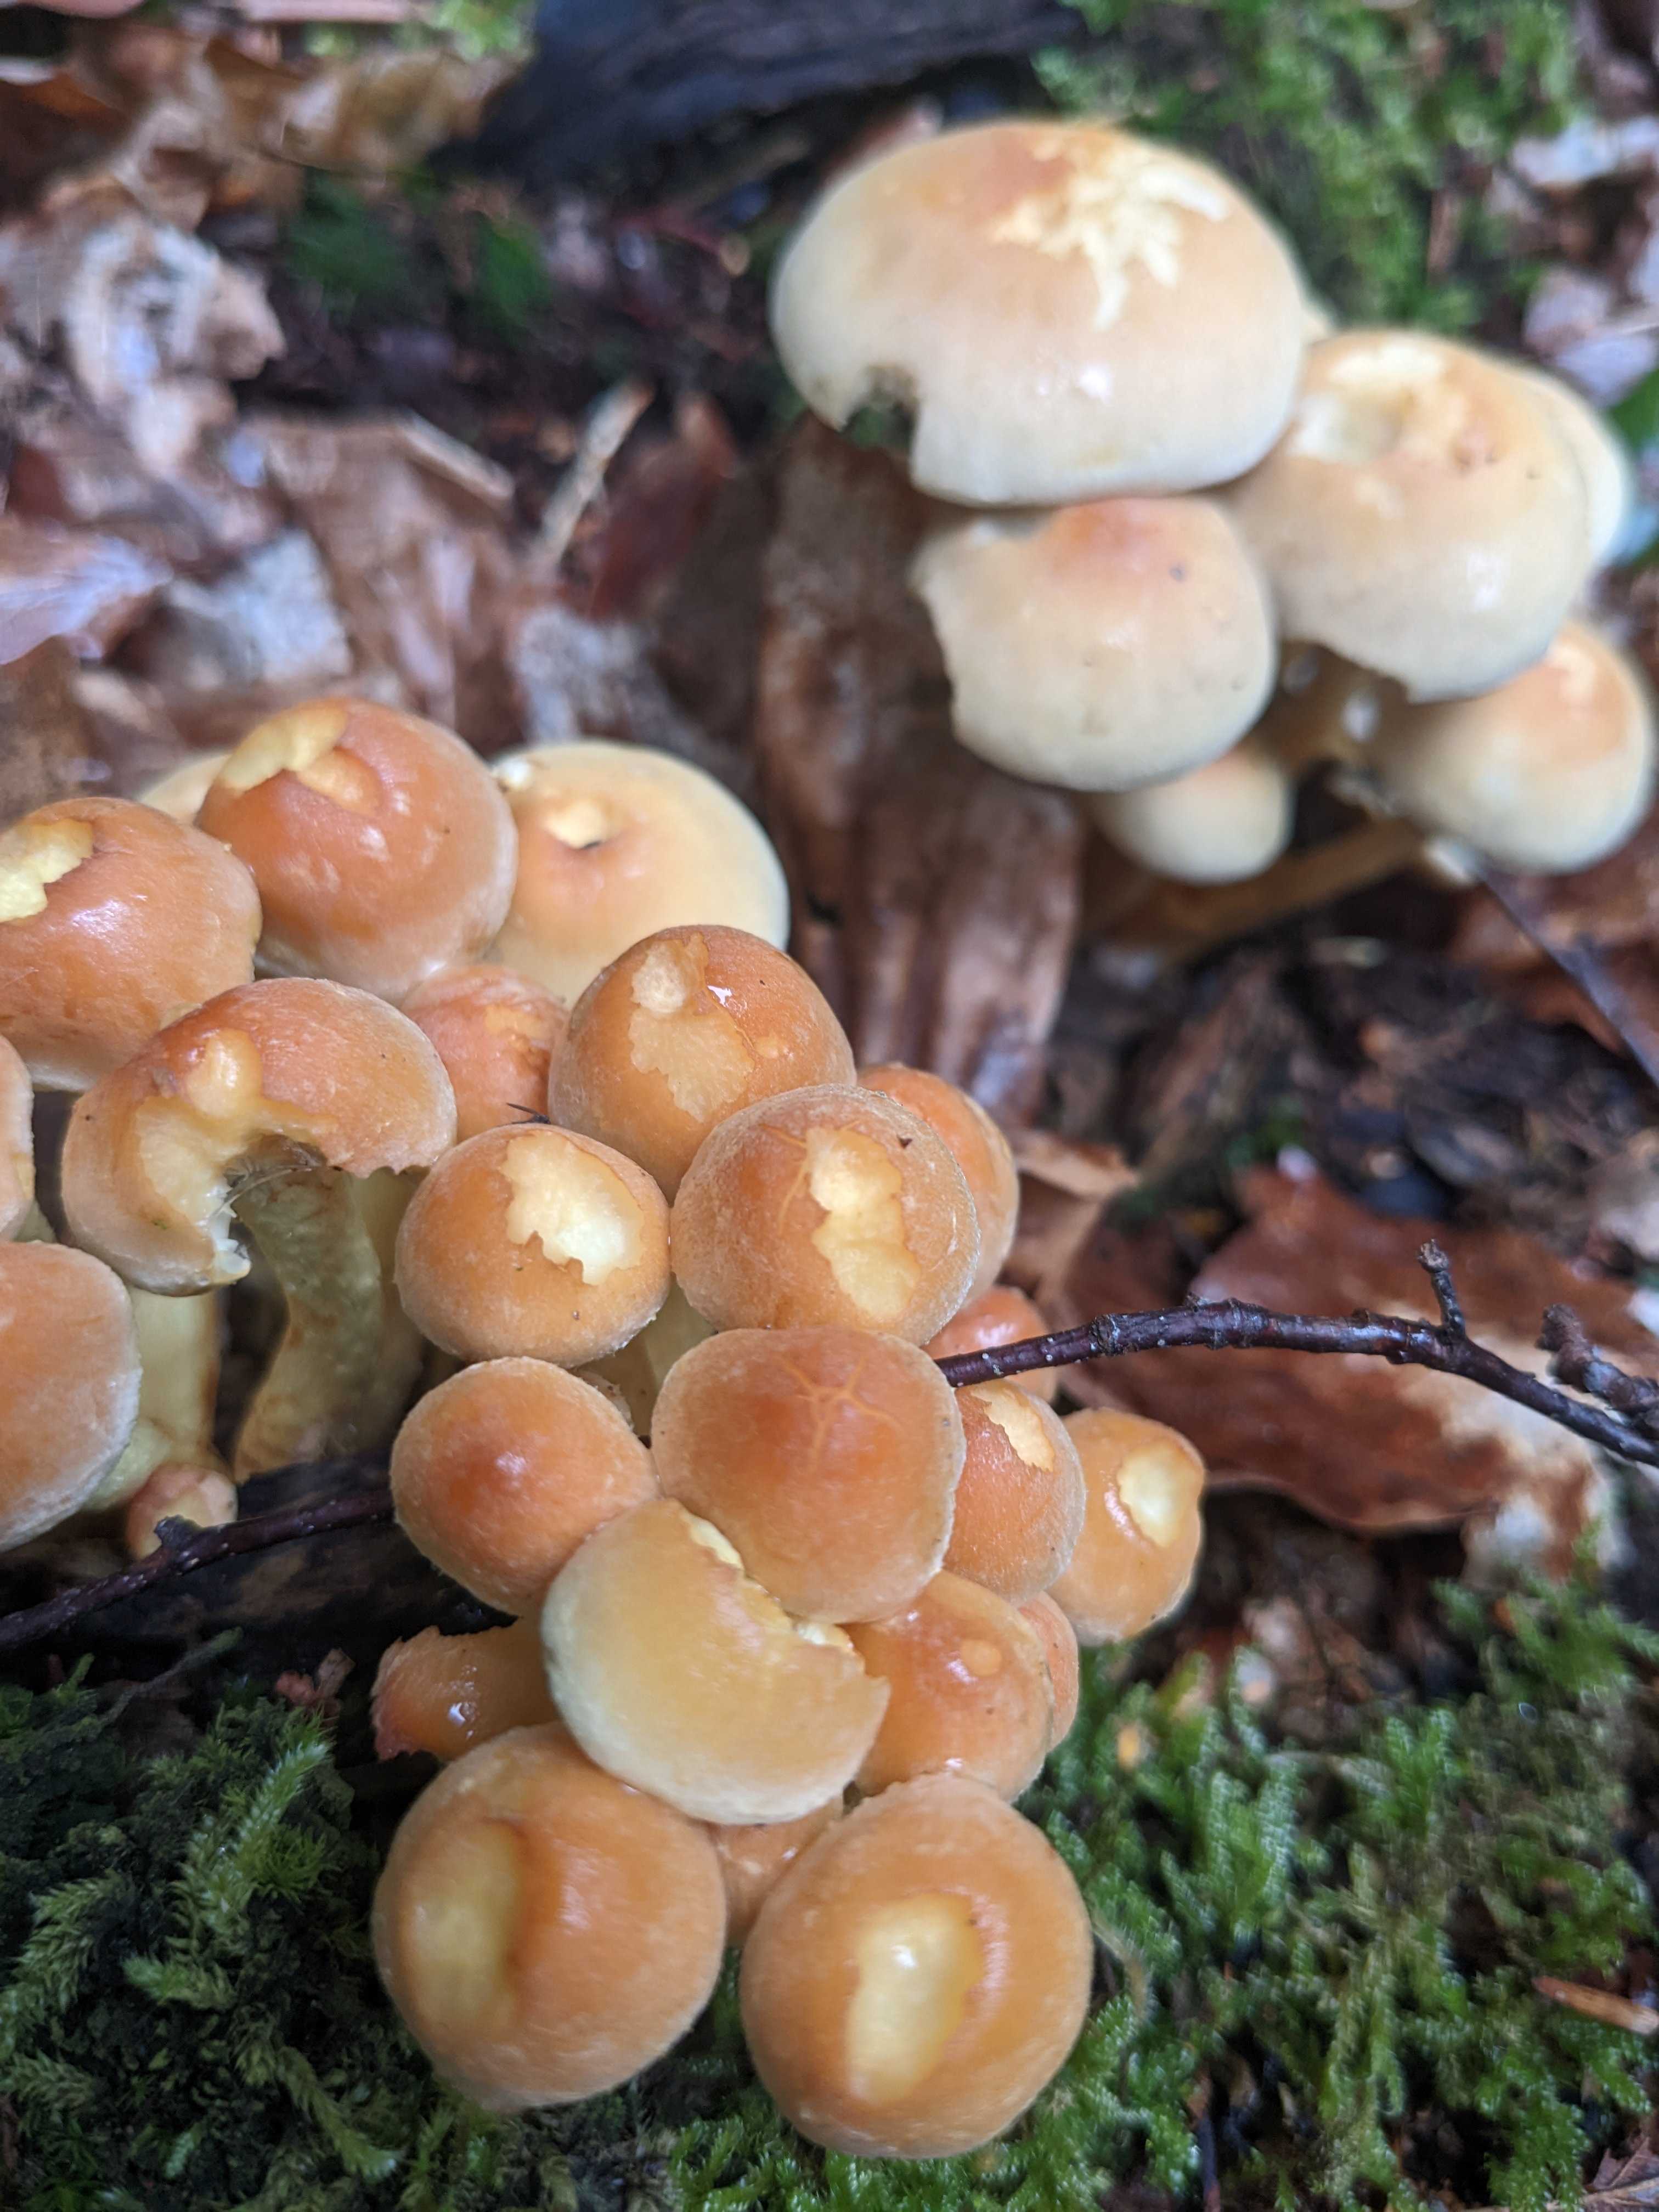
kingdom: Fungi
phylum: Basidiomycota
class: Agaricomycetes
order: Agaricales
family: Strophariaceae
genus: Hypholoma
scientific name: Hypholoma fasciculare
